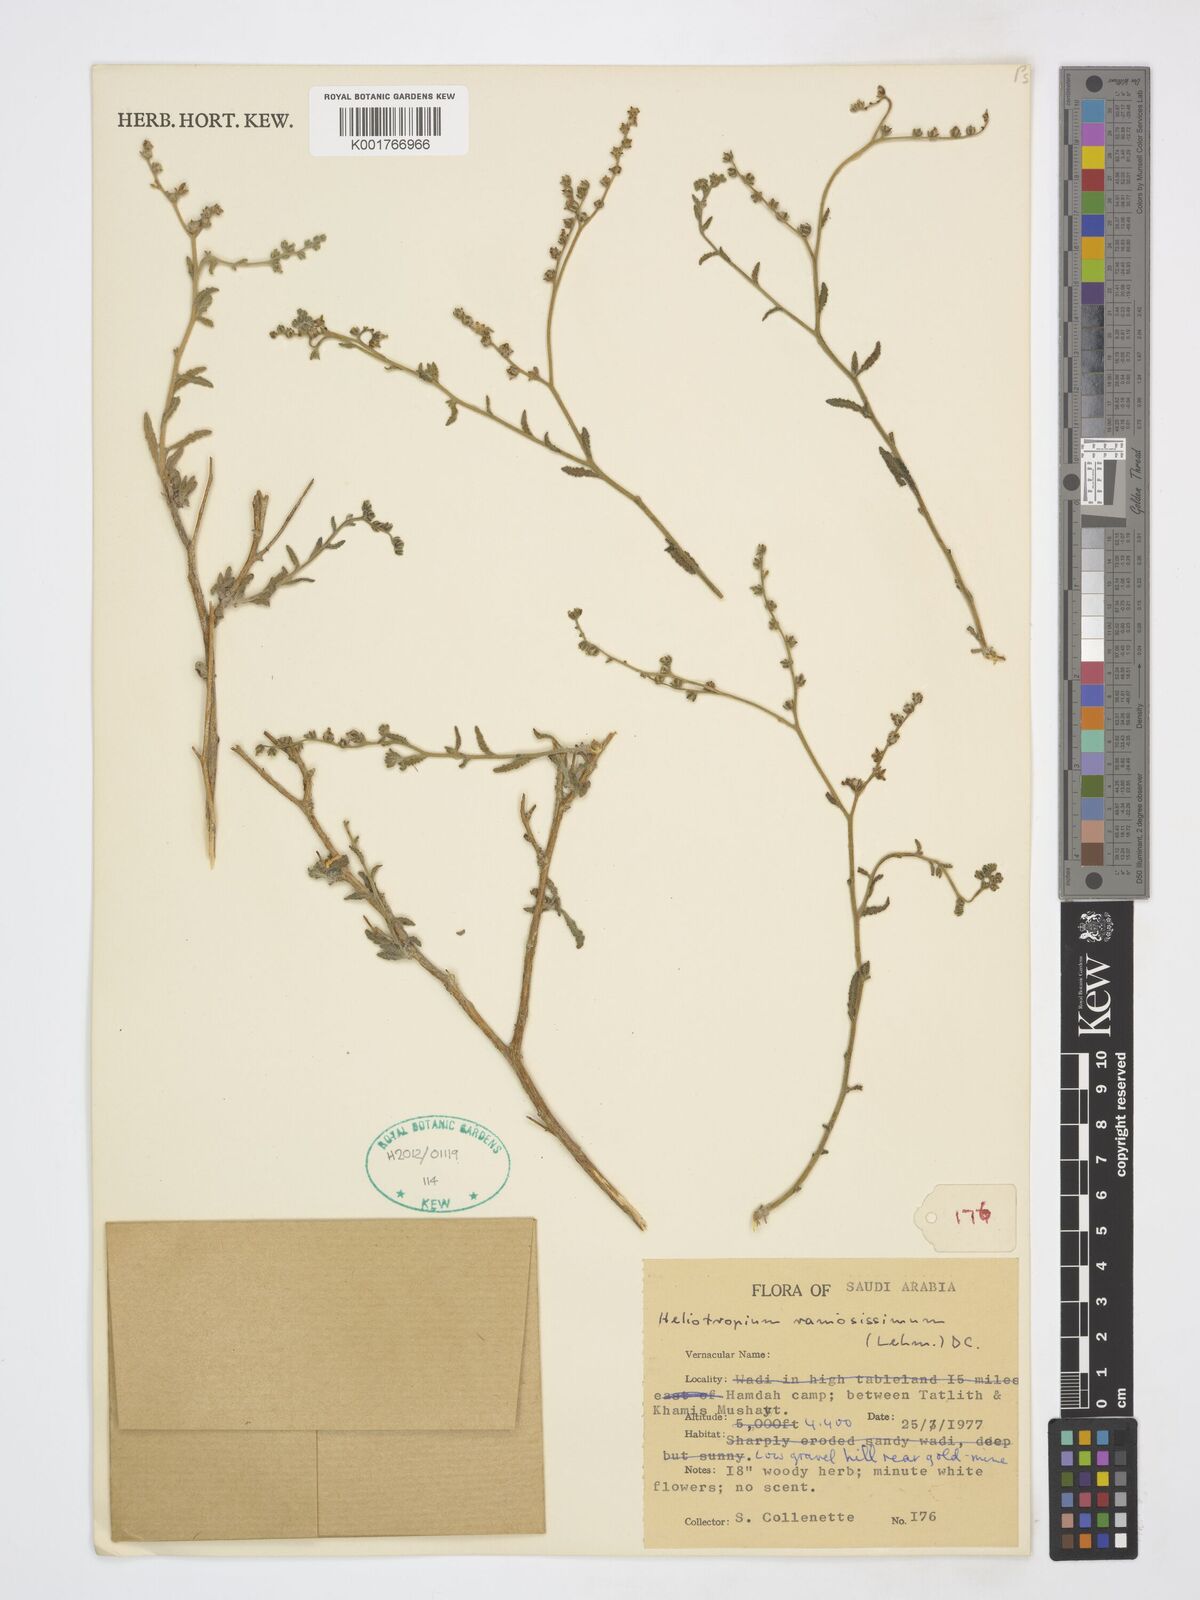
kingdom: Plantae
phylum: Tracheophyta
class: Magnoliopsida
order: Boraginales
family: Heliotropiaceae
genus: Heliotropium
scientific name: Heliotropium ramosissimum
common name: Wavy heliotrope
